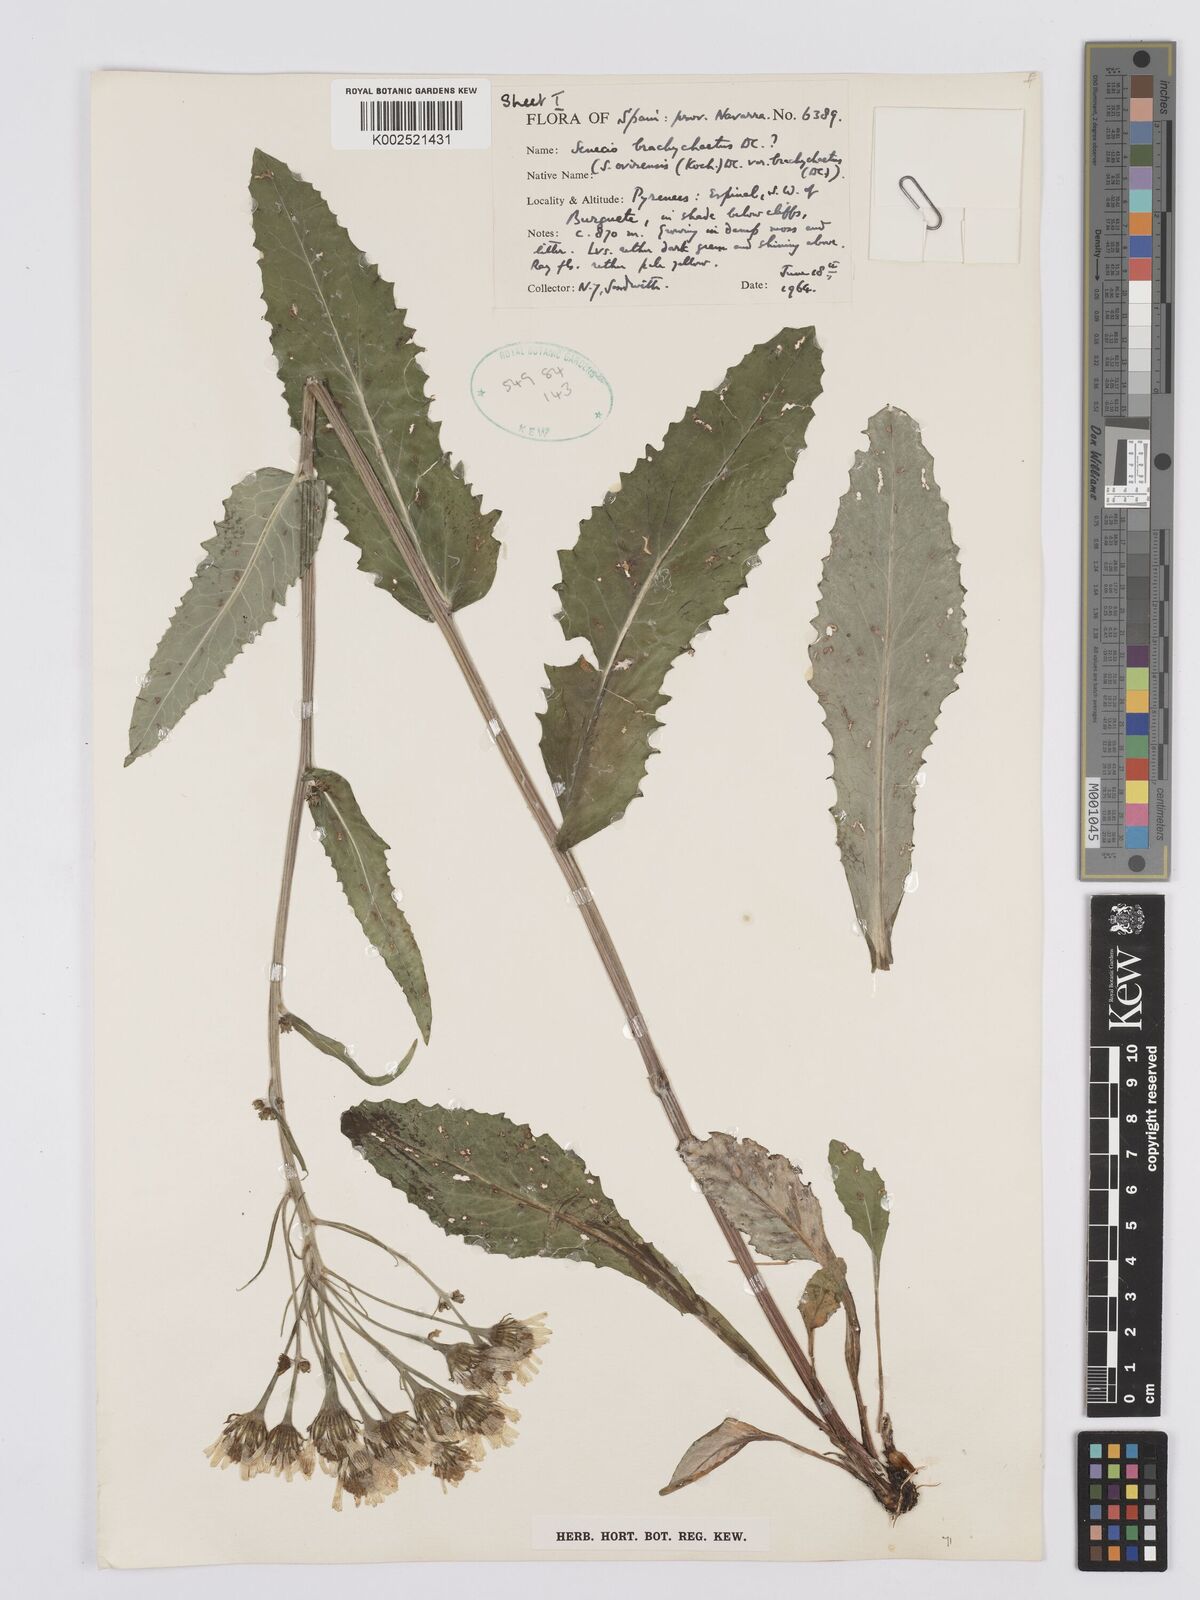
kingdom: Plantae
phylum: Tracheophyta
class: Magnoliopsida
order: Asterales
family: Asteraceae
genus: Tephroseris
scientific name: Tephroseris
